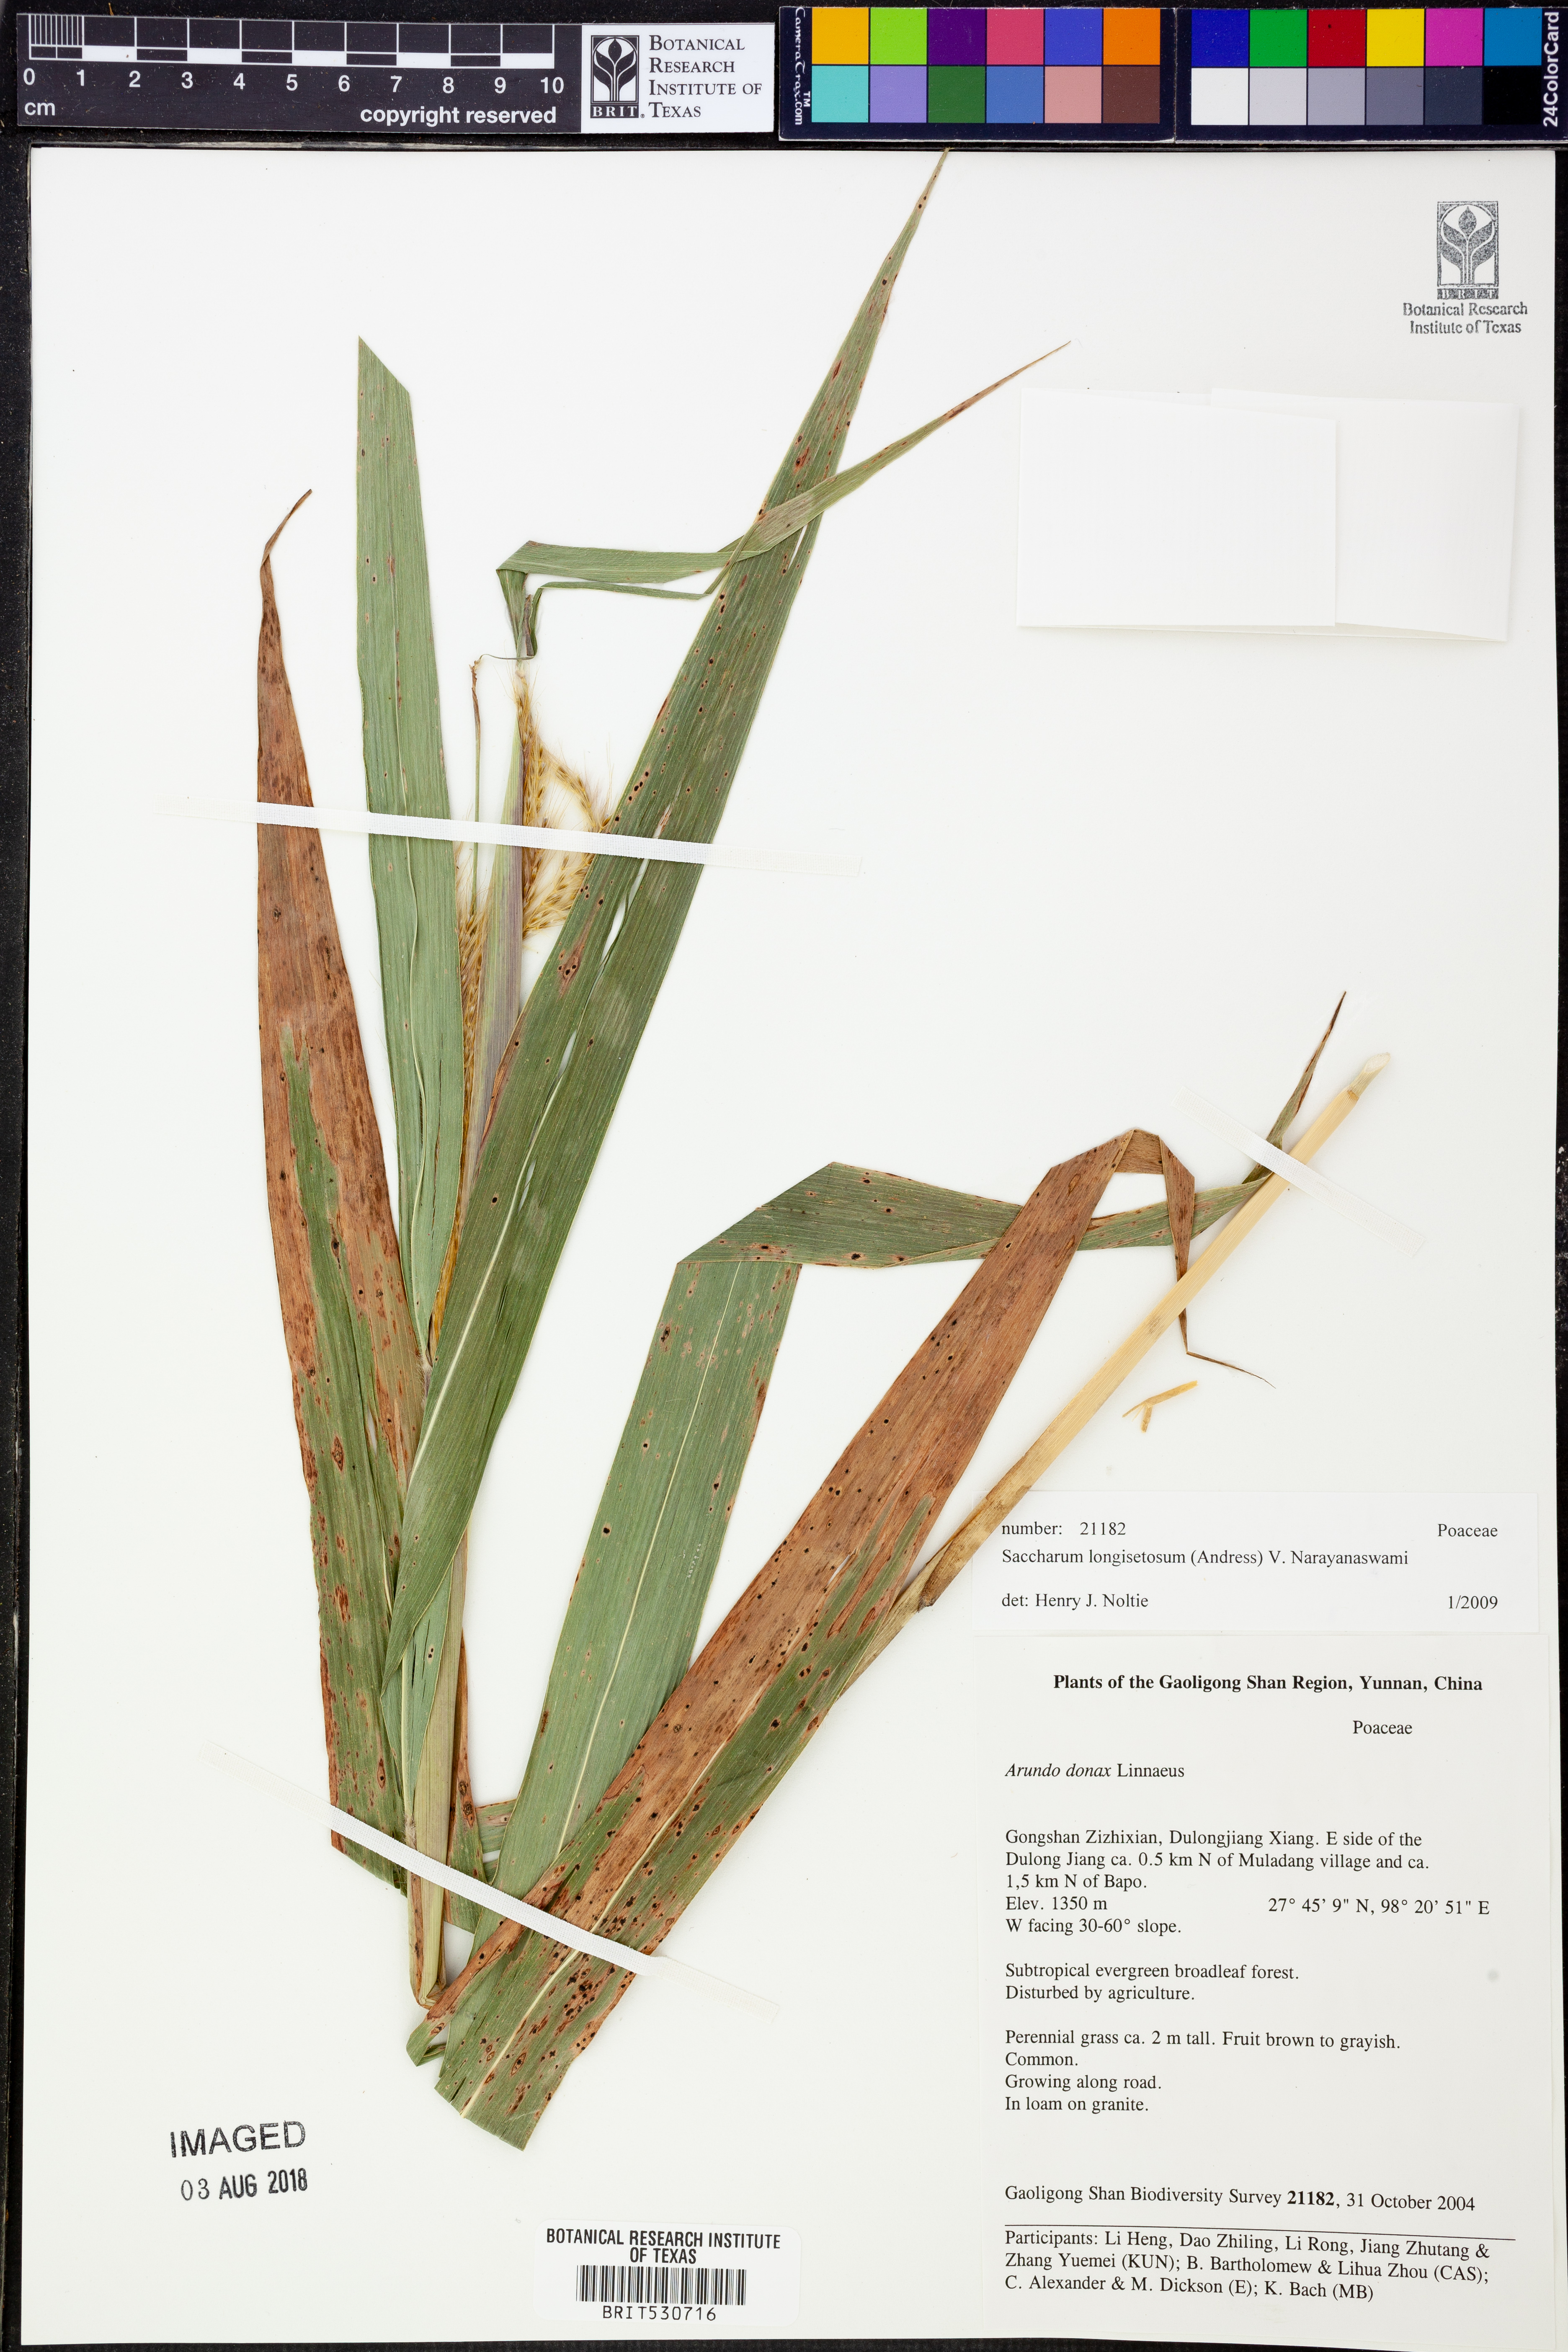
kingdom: Plantae
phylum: Tracheophyta
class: Liliopsida
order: Poales
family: Poaceae
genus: Saccharum
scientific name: Saccharum longisetosum
